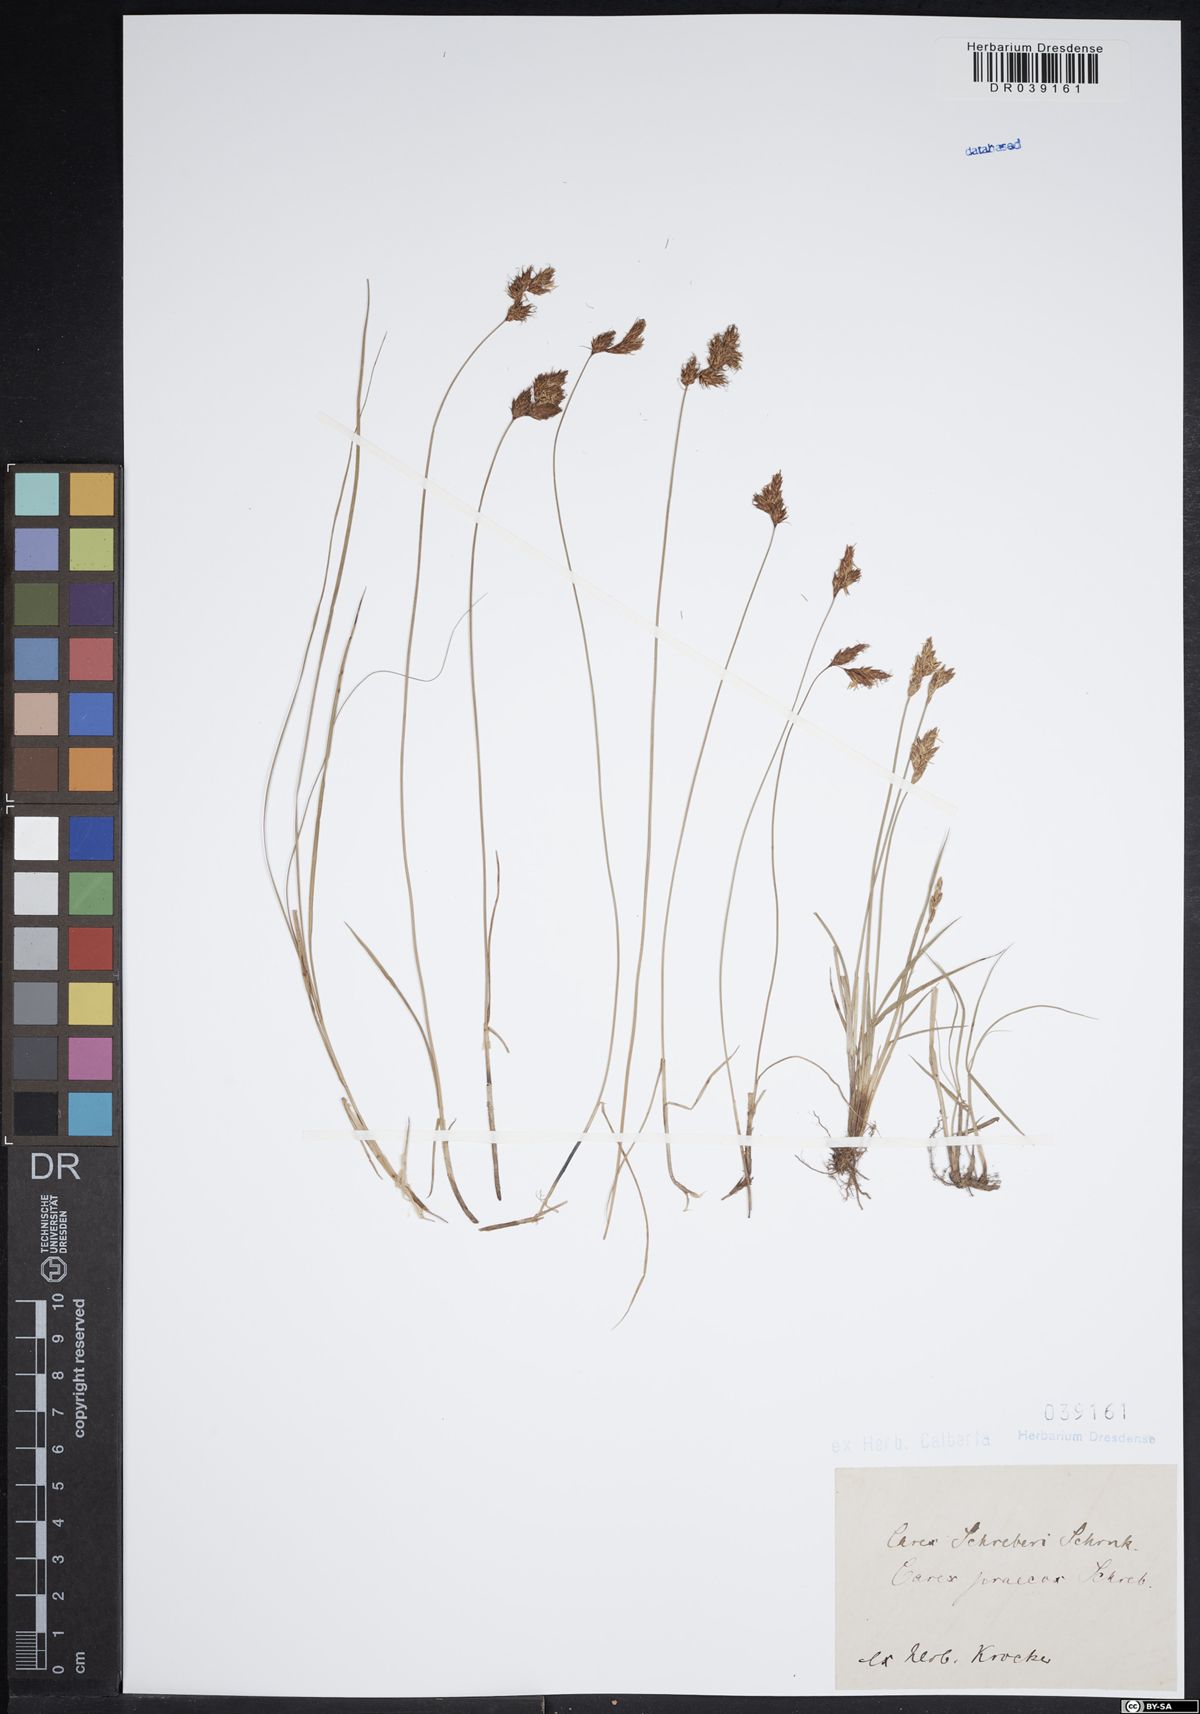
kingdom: Plantae
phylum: Tracheophyta
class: Liliopsida
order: Poales
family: Cyperaceae
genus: Carex
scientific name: Carex praecox
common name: Early sedge
